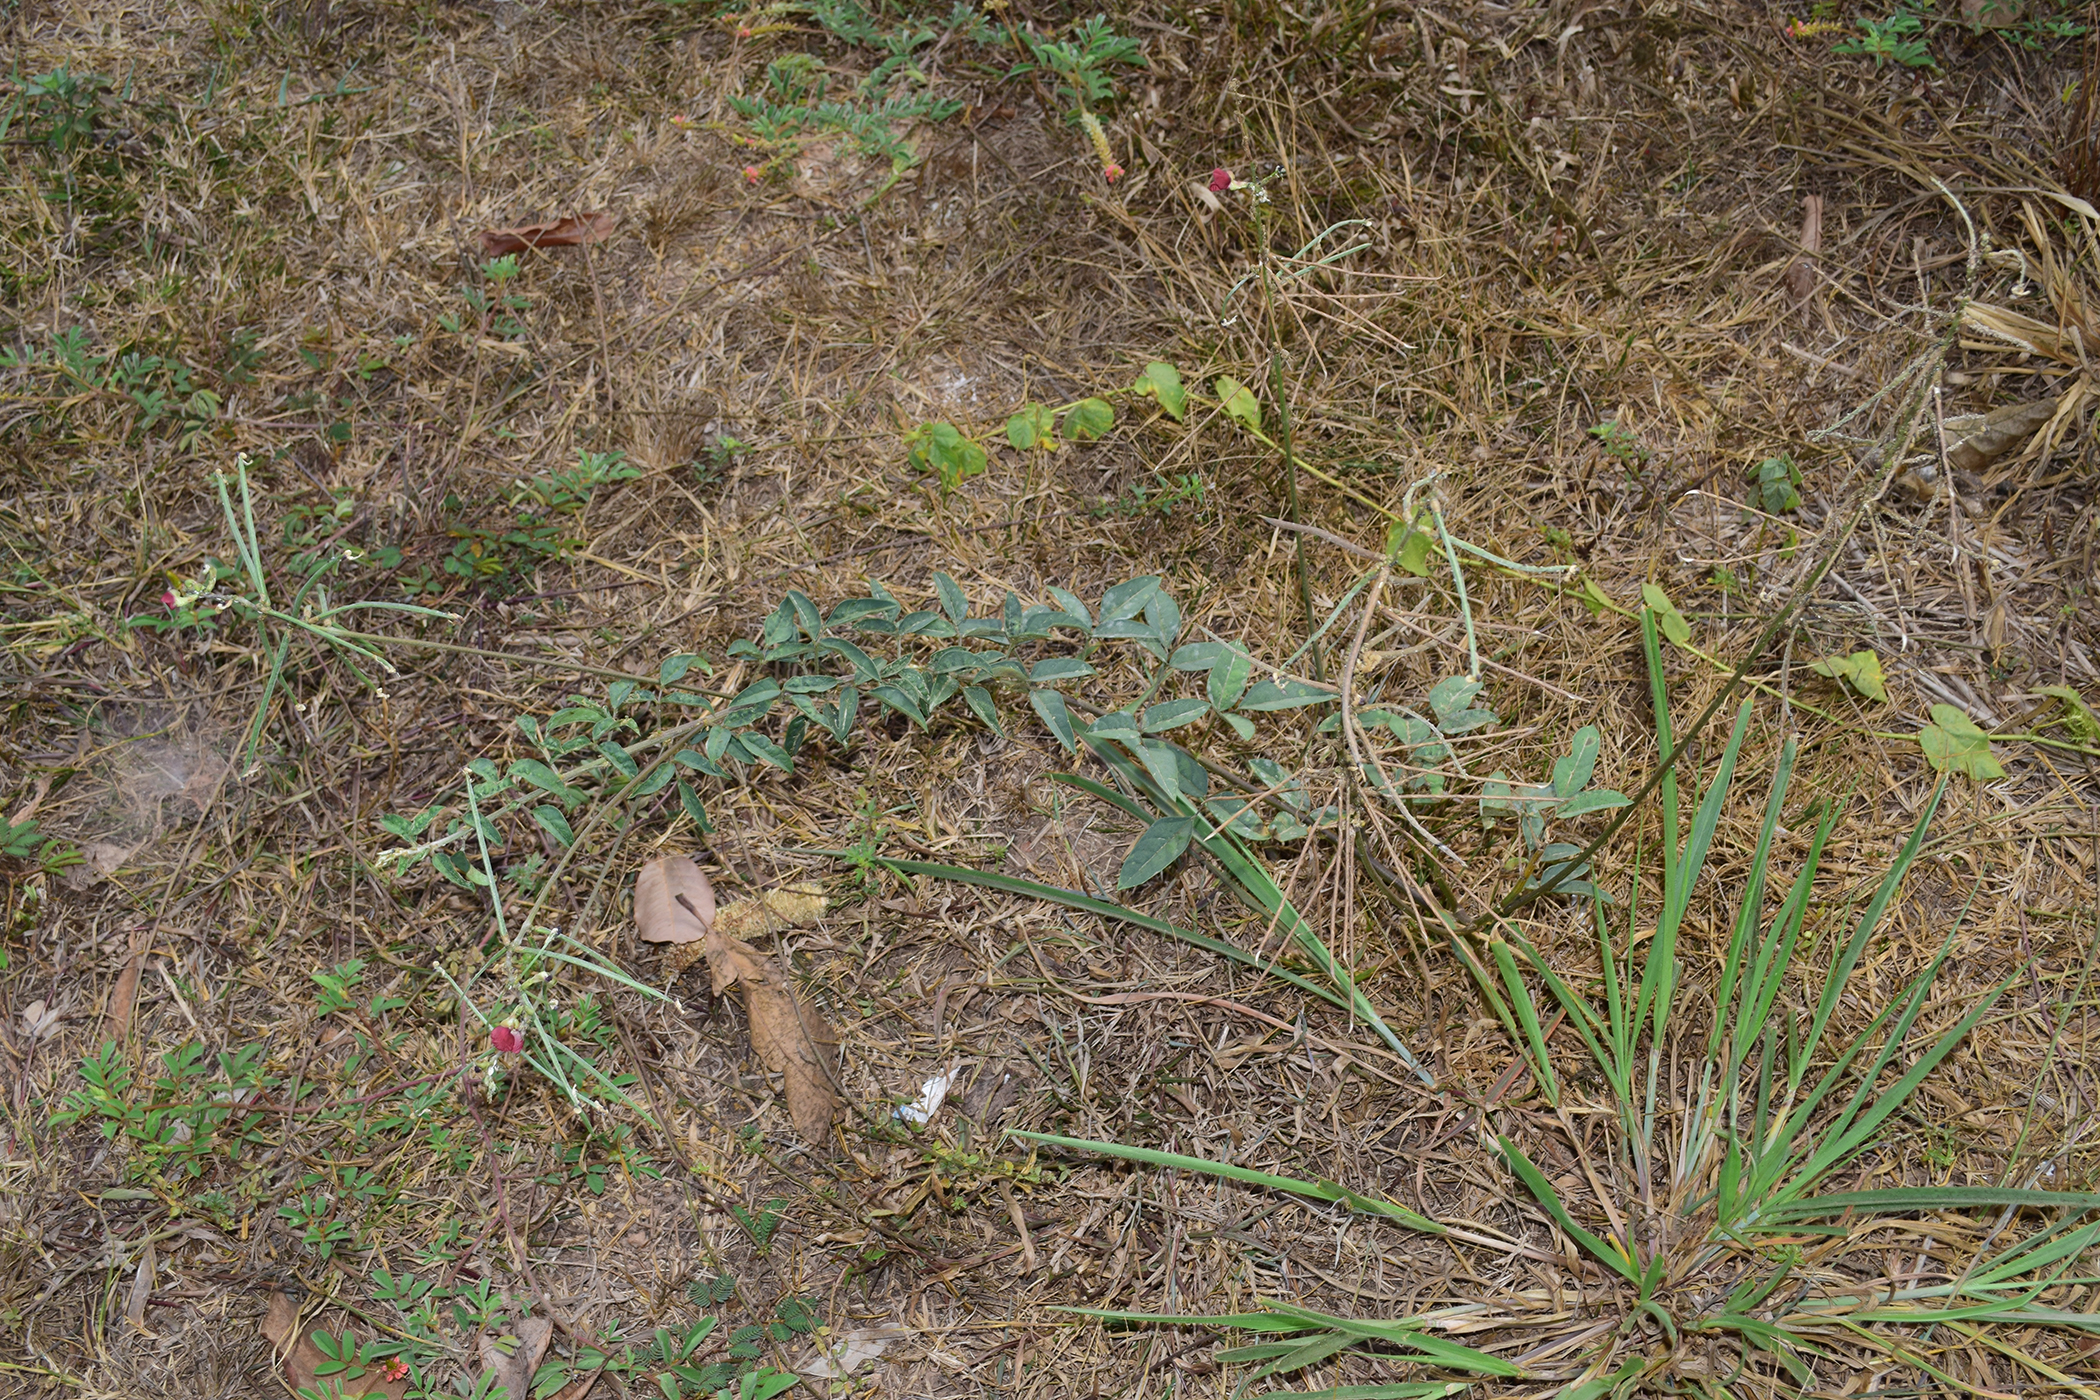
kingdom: Plantae
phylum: Tracheophyta
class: Magnoliopsida
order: Fabales
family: Fabaceae
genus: Macroptilium
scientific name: Macroptilium lathyroides
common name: Wild bushbean
